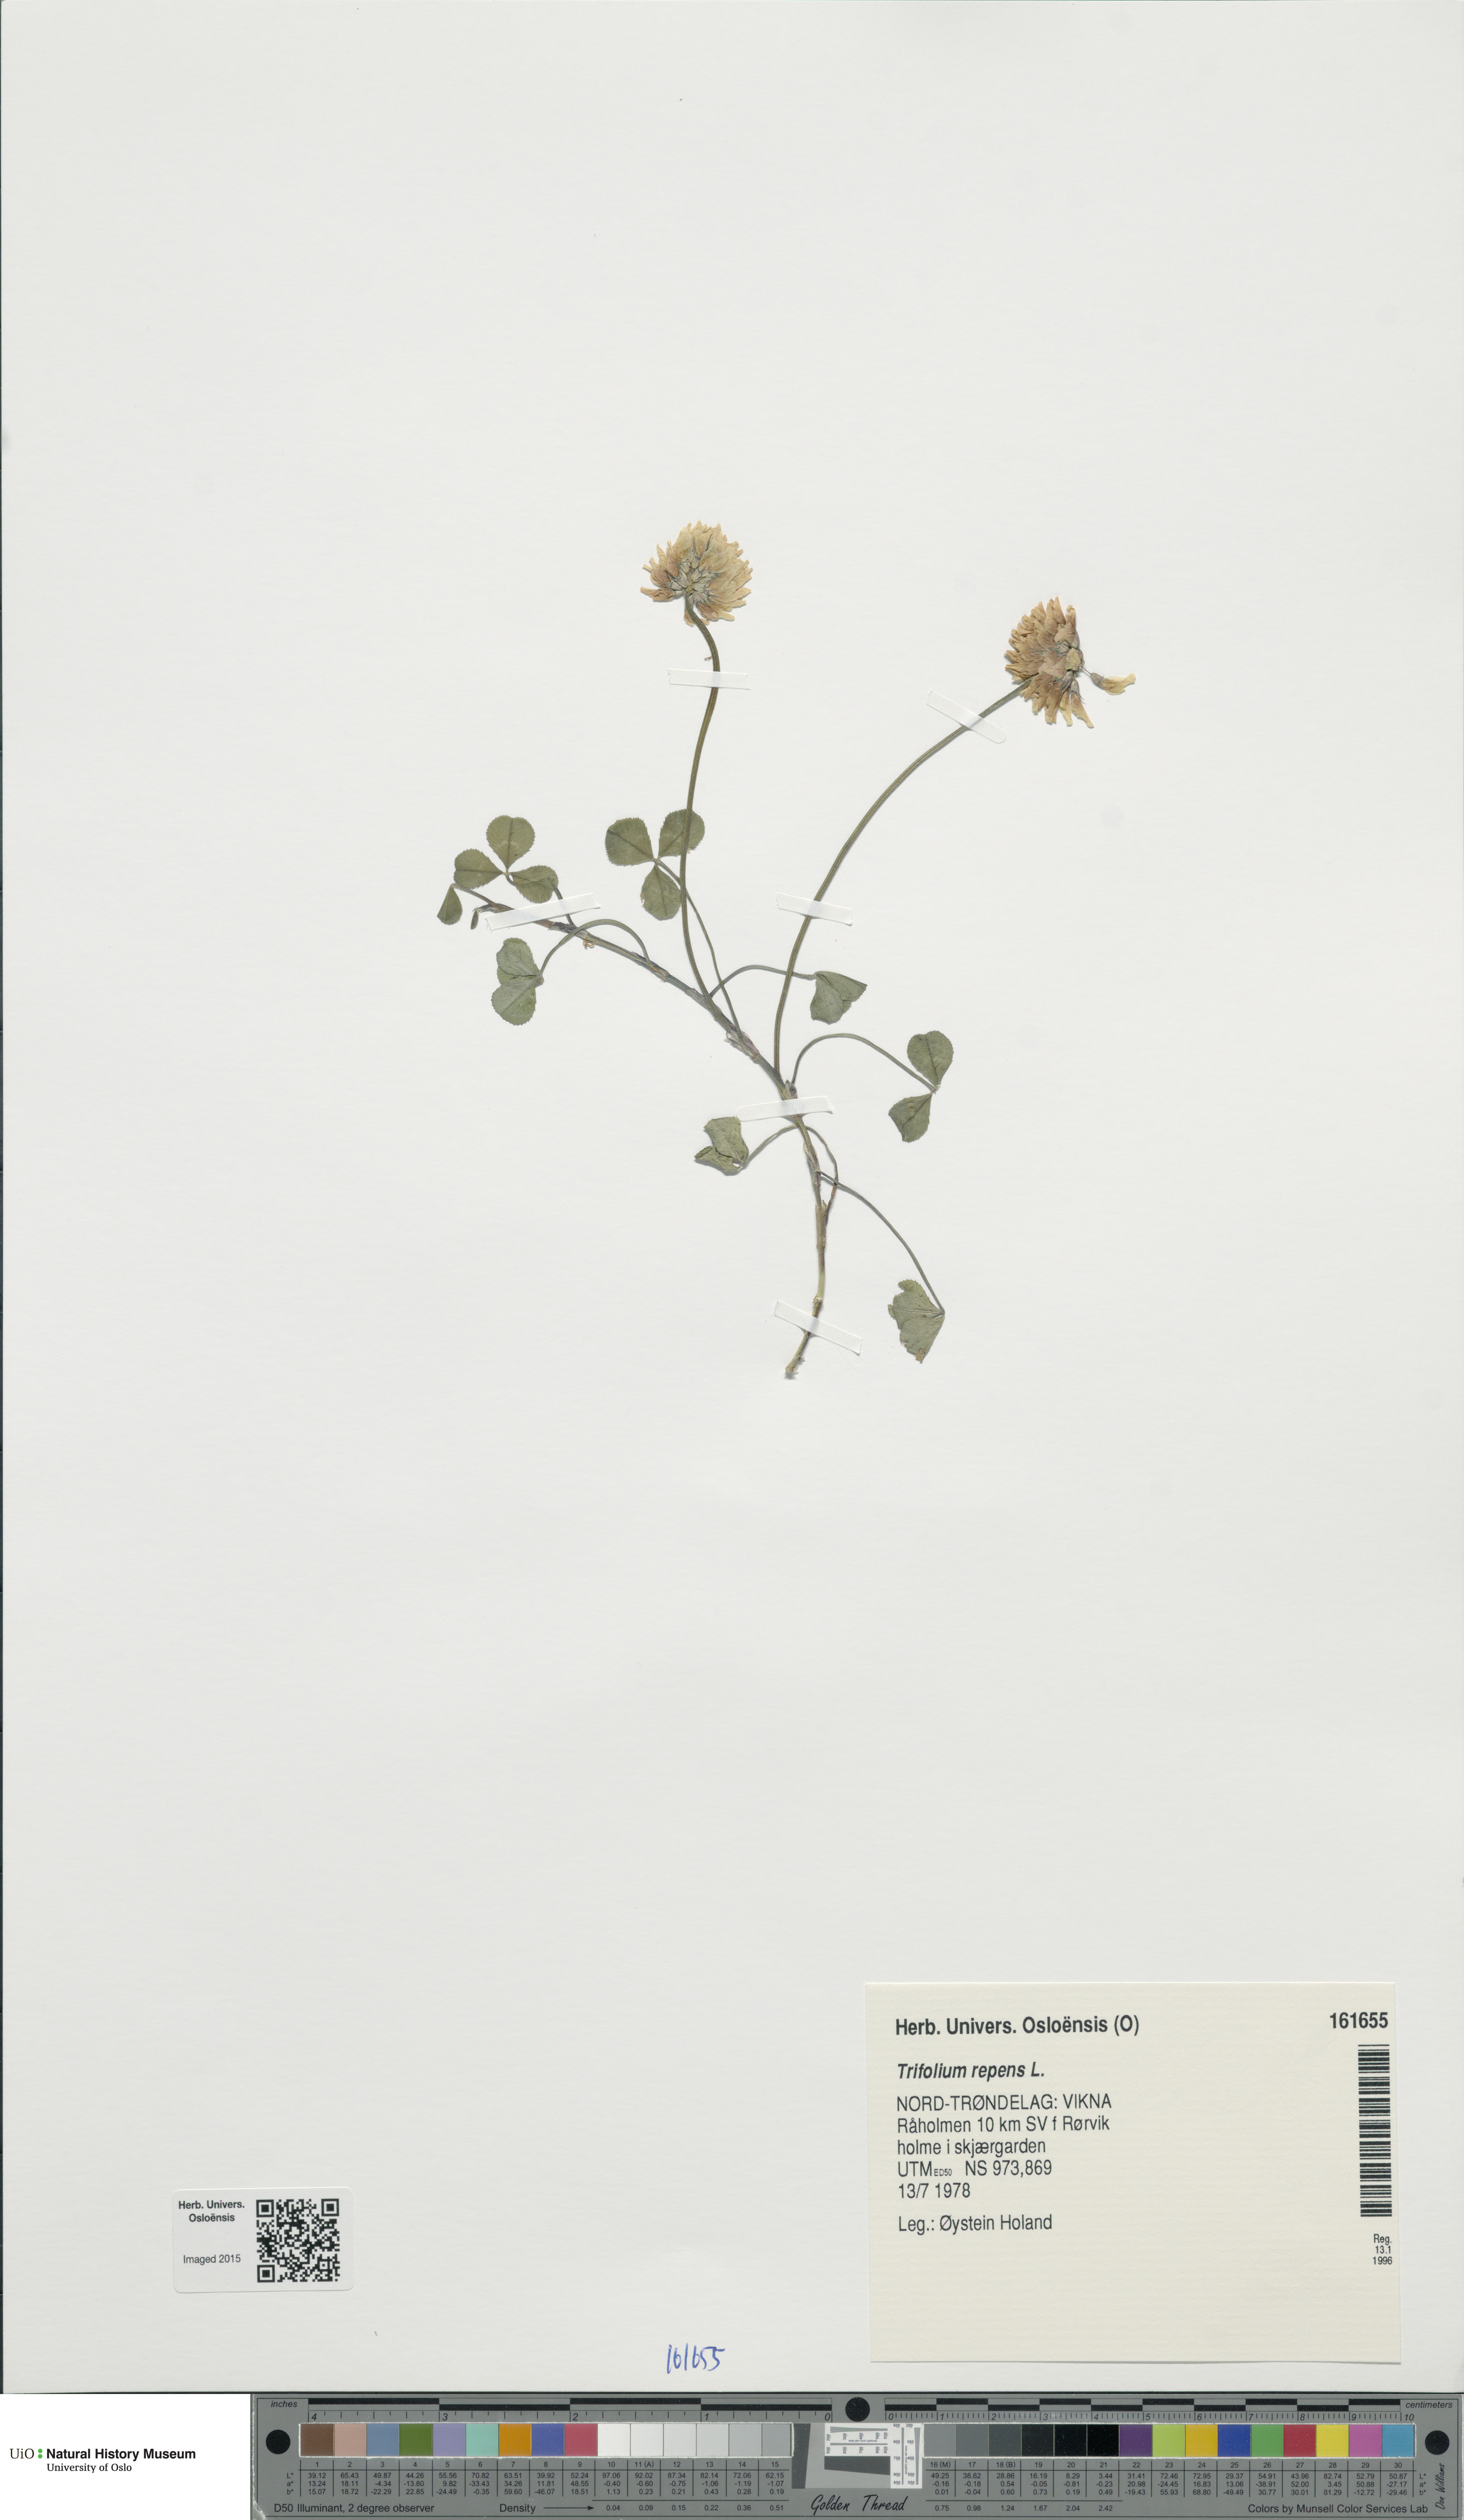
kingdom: Plantae
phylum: Tracheophyta
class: Magnoliopsida
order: Fabales
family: Fabaceae
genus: Trifolium
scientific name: Trifolium repens
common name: White clover
